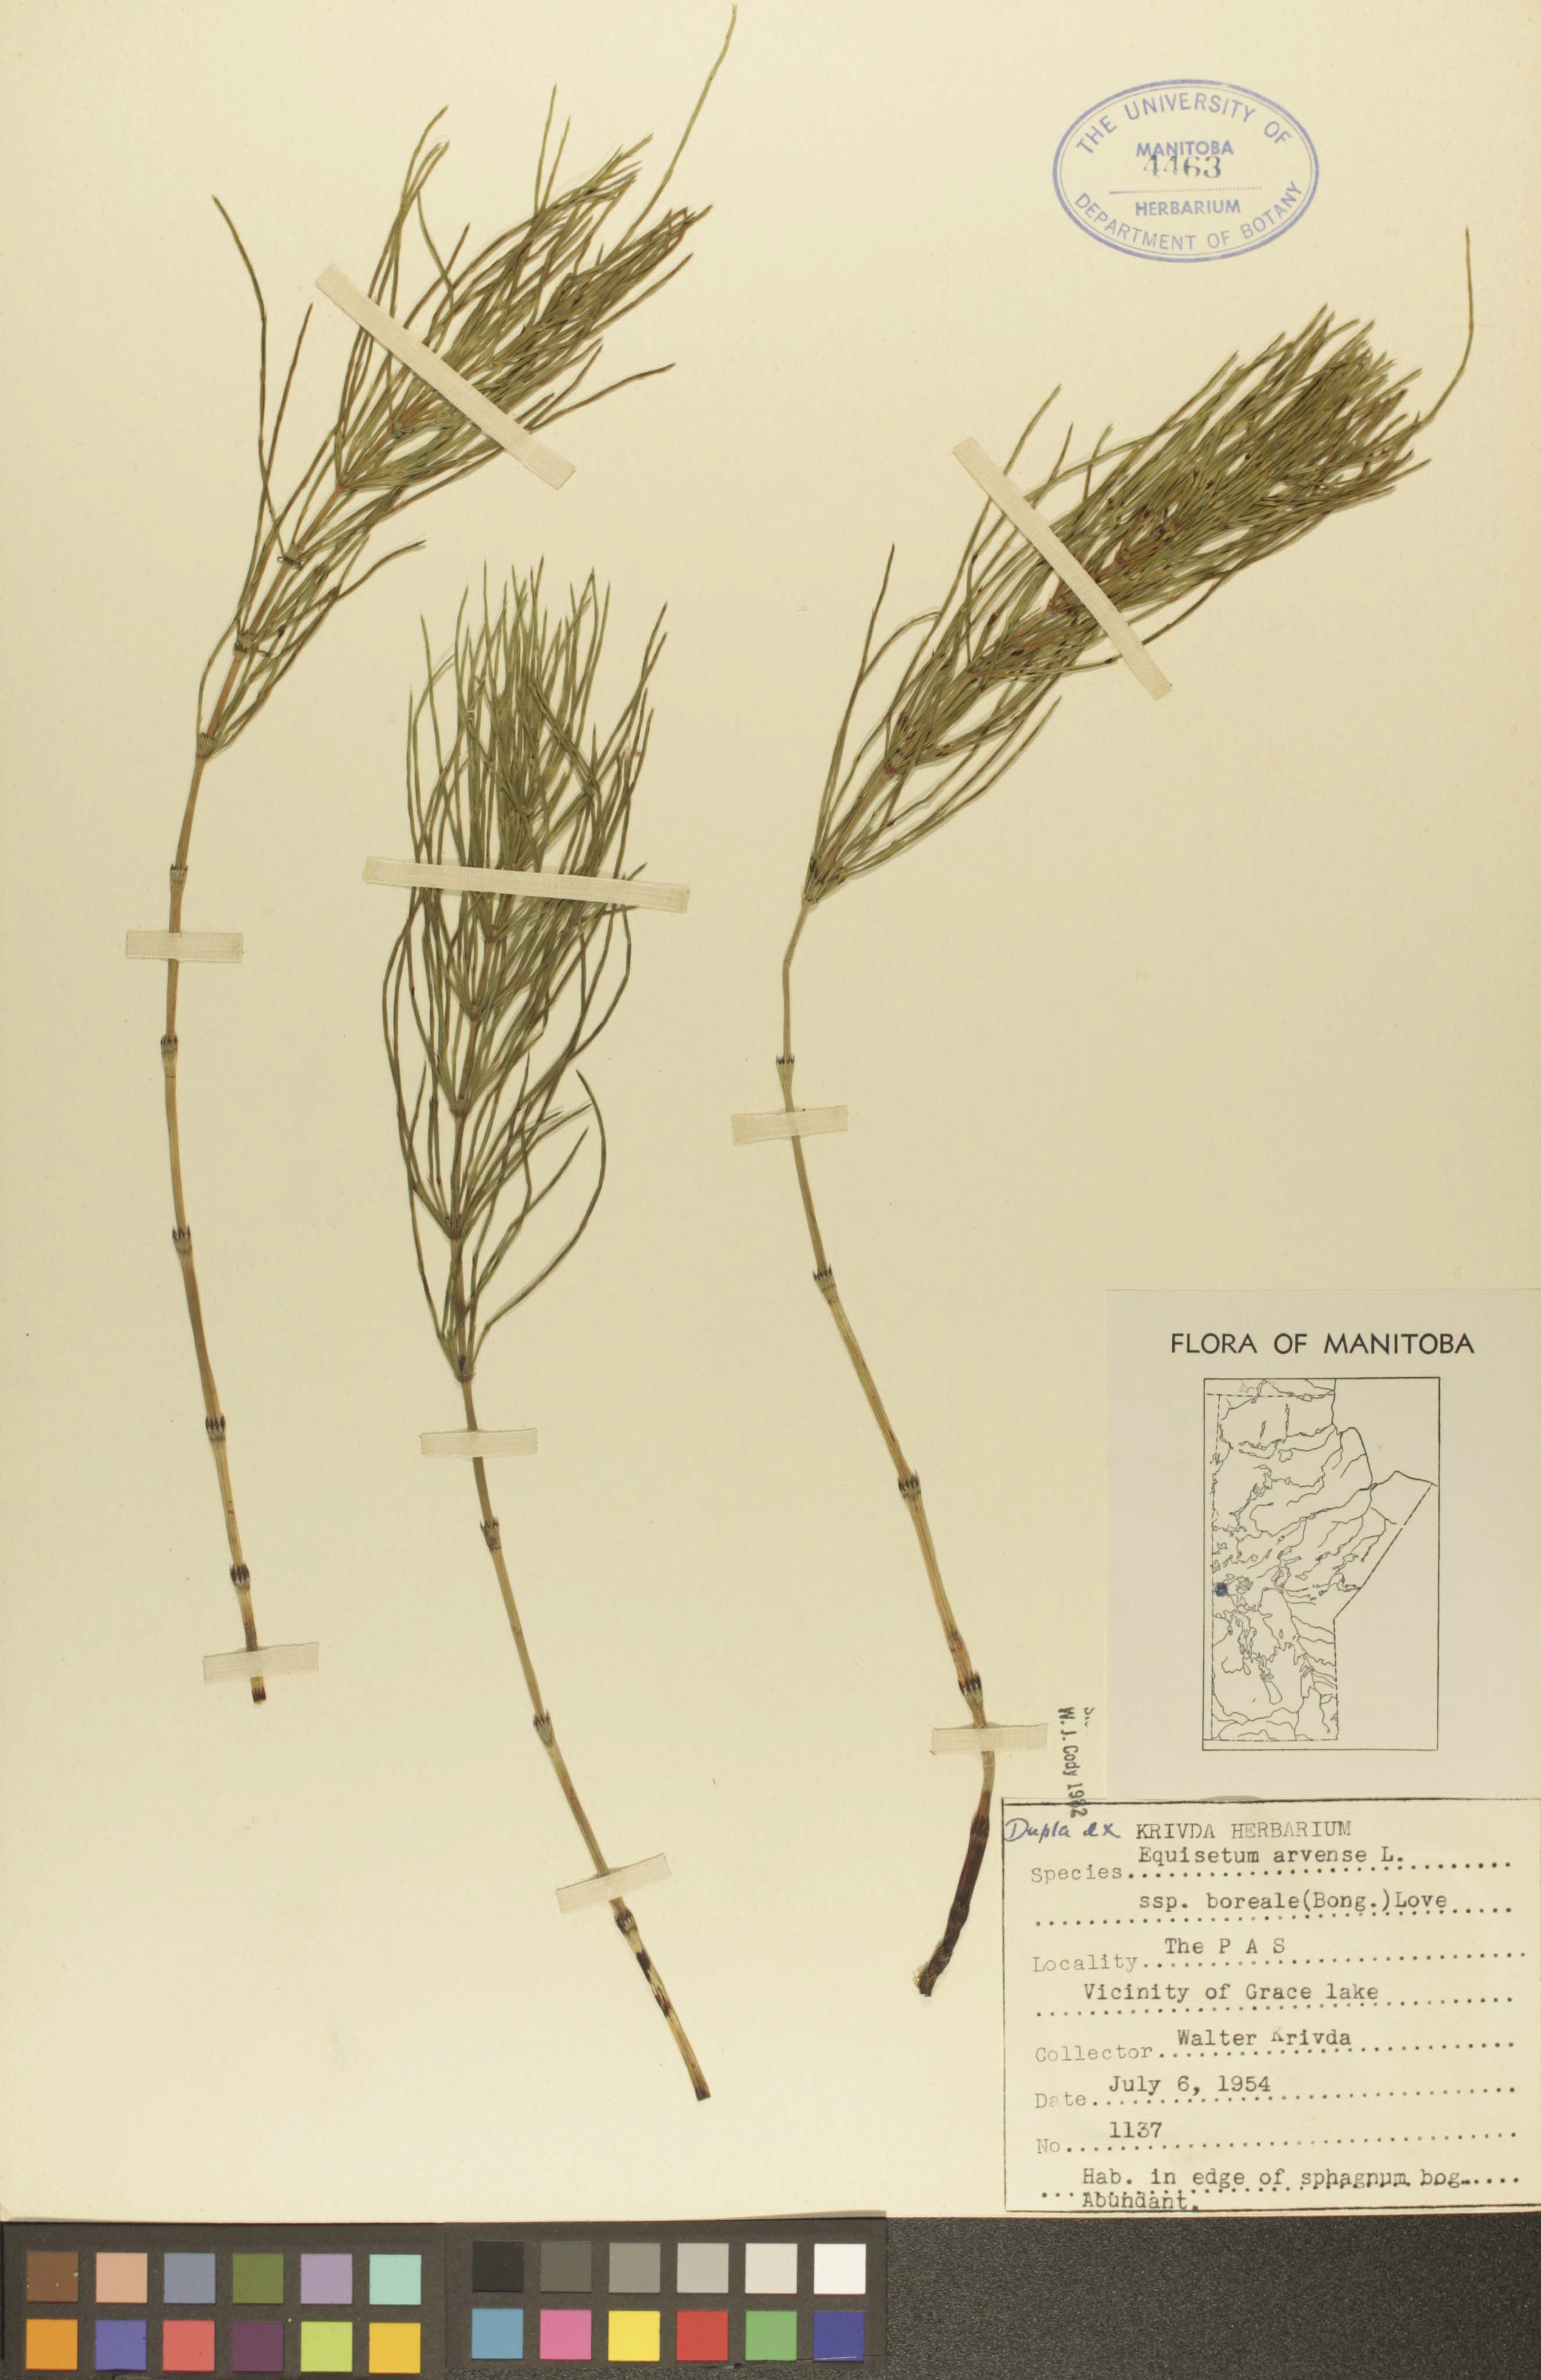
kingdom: Plantae
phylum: Tracheophyta
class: Polypodiopsida
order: Equisetales
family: Equisetaceae
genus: Equisetum
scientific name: Equisetum arvense
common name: Field horsetail
